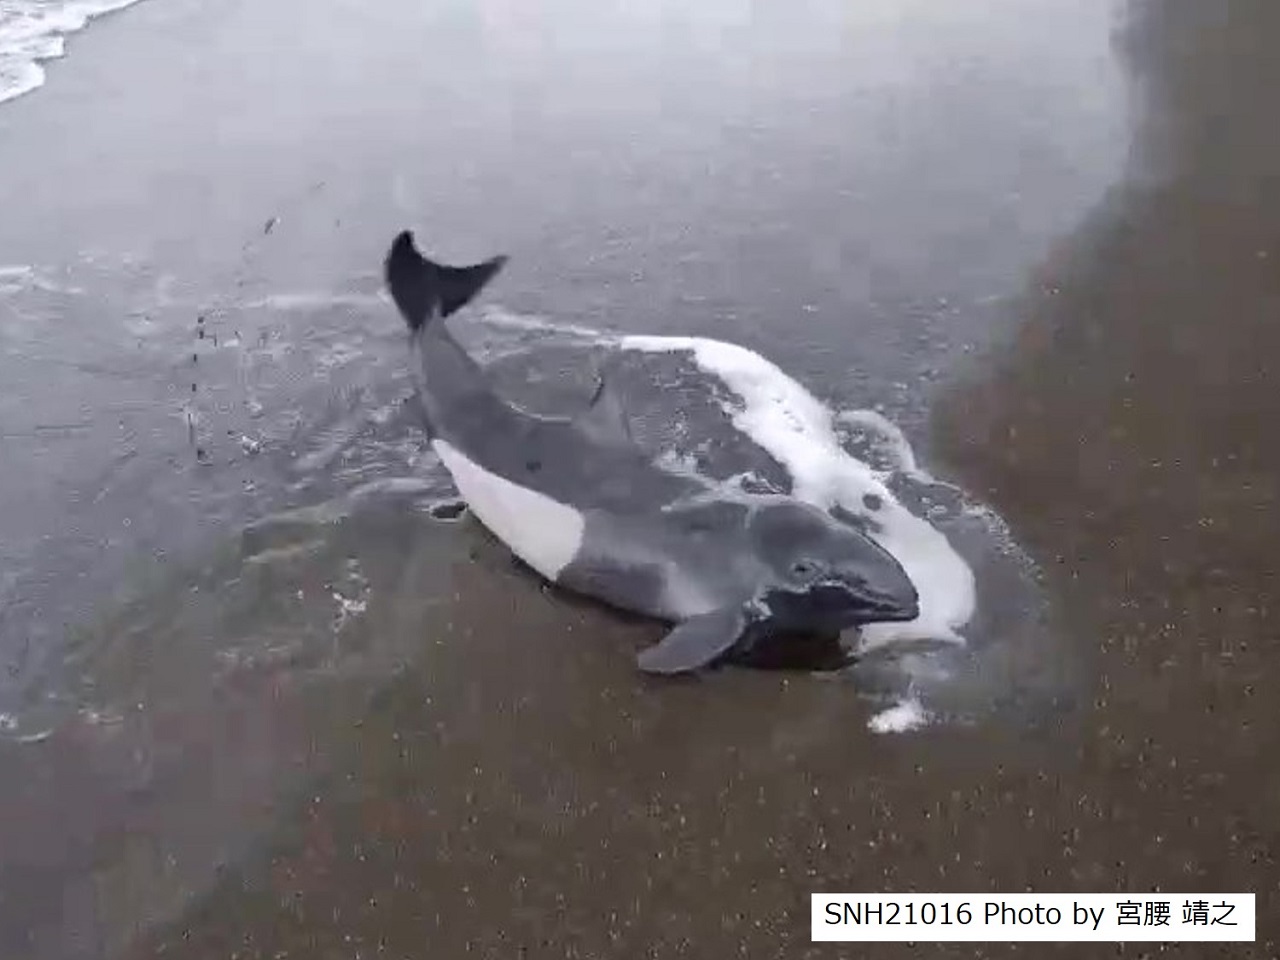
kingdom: Animalia
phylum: Chordata
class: Mammalia
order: Cetacea
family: Phocoenidae
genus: Phocoenoides
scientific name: Phocoenoides dalli
